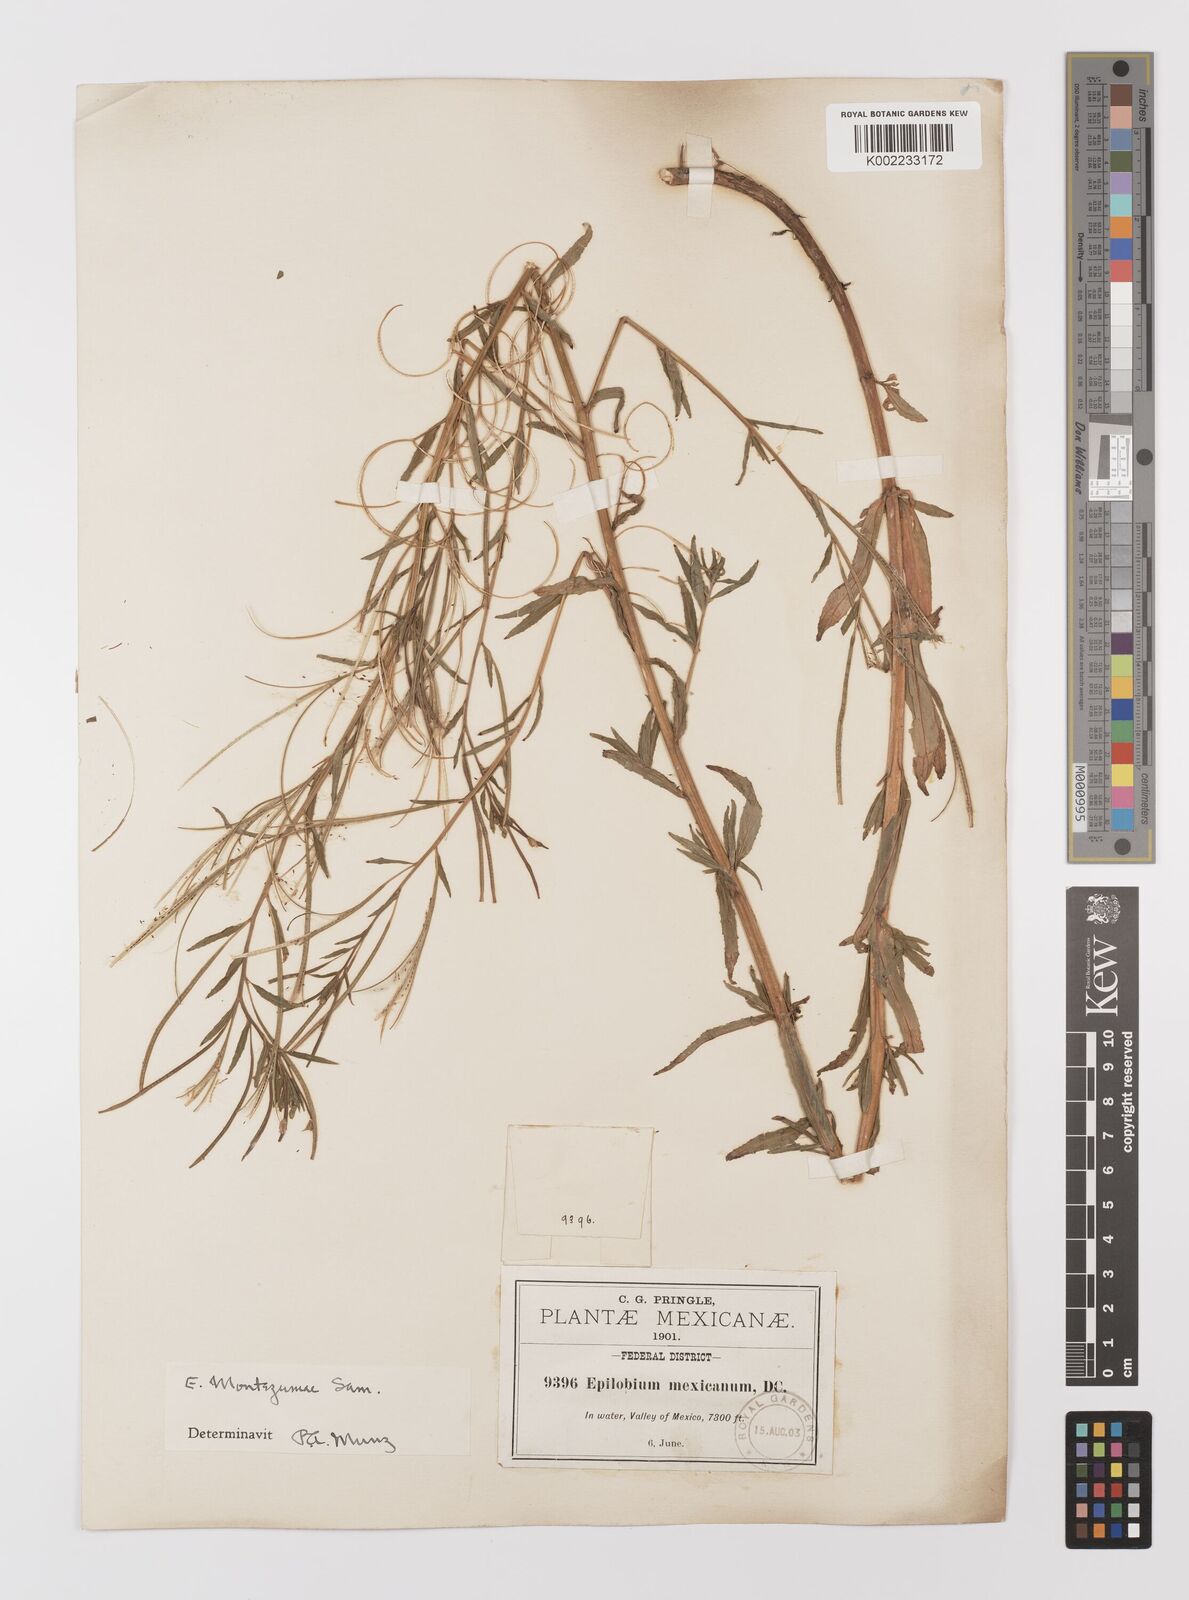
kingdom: Plantae
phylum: Tracheophyta
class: Magnoliopsida
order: Myrtales
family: Onagraceae
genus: Epilobium
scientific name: Epilobium
